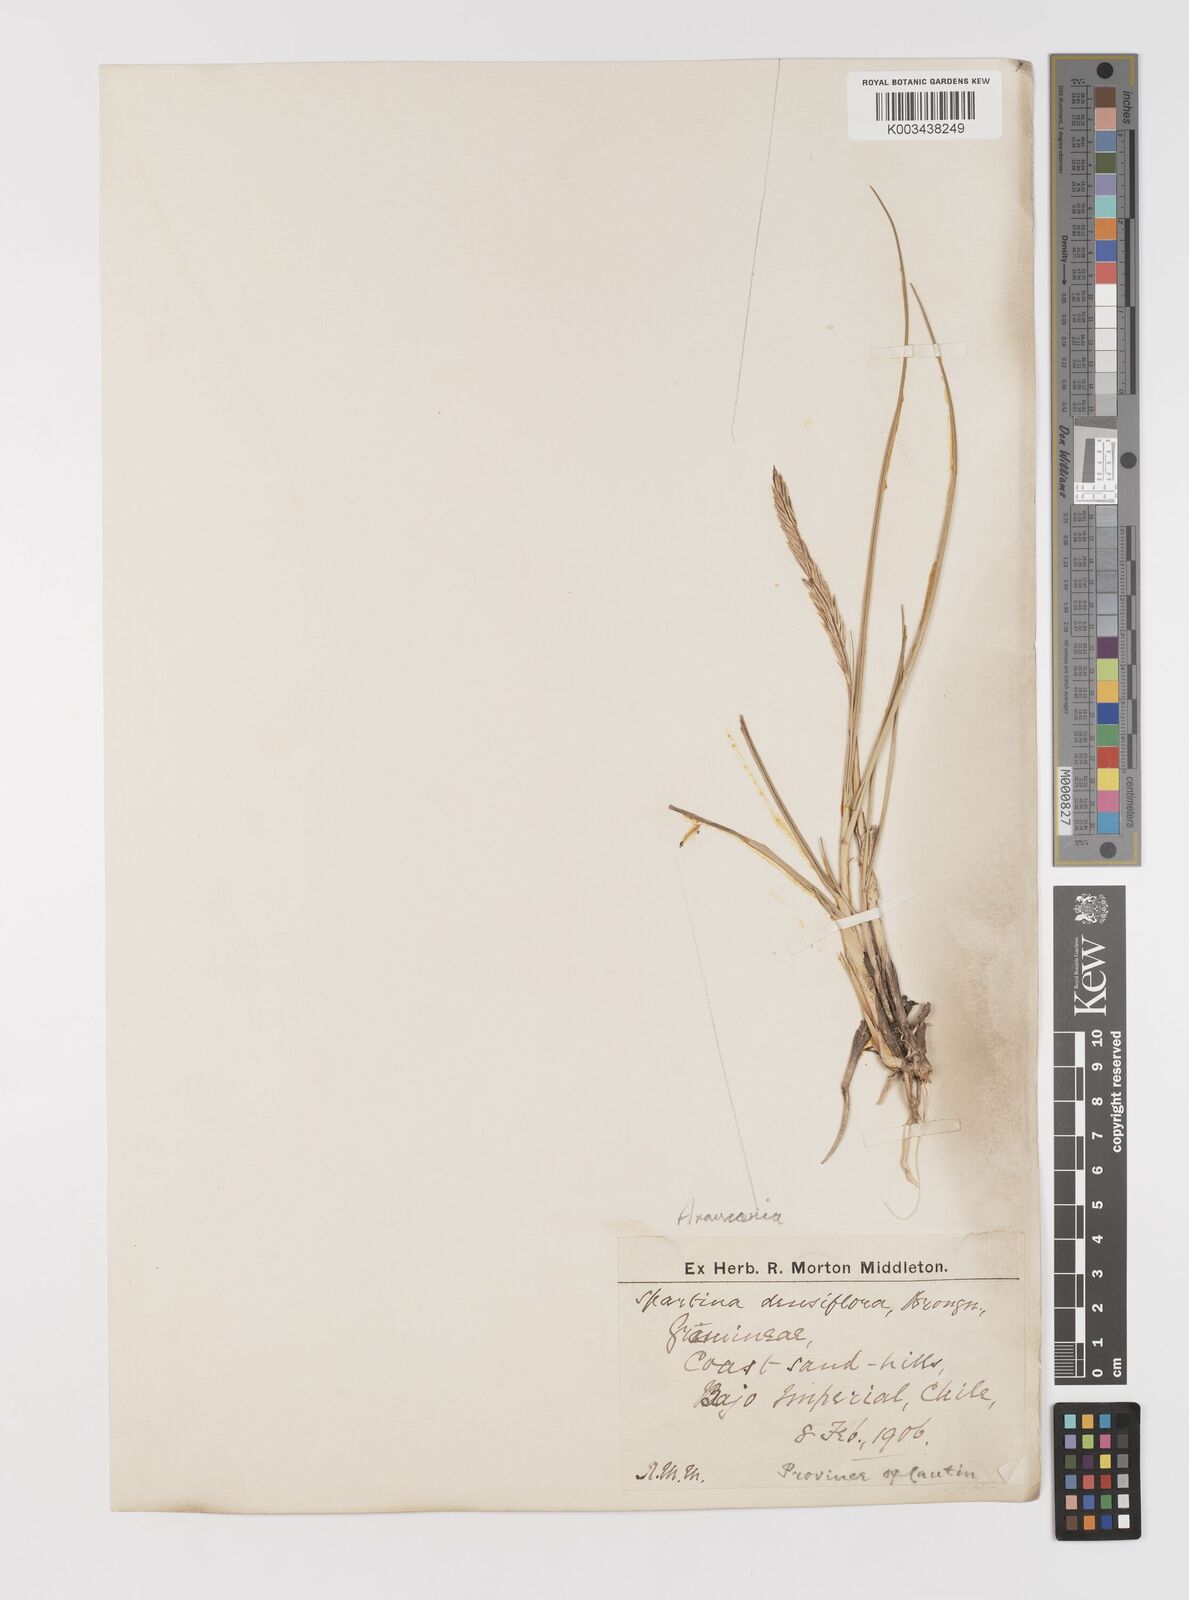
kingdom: Plantae
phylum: Tracheophyta
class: Liliopsida
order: Poales
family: Poaceae
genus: Sporobolus
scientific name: Sporobolus montevidensis
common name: Montevideo dropseed
